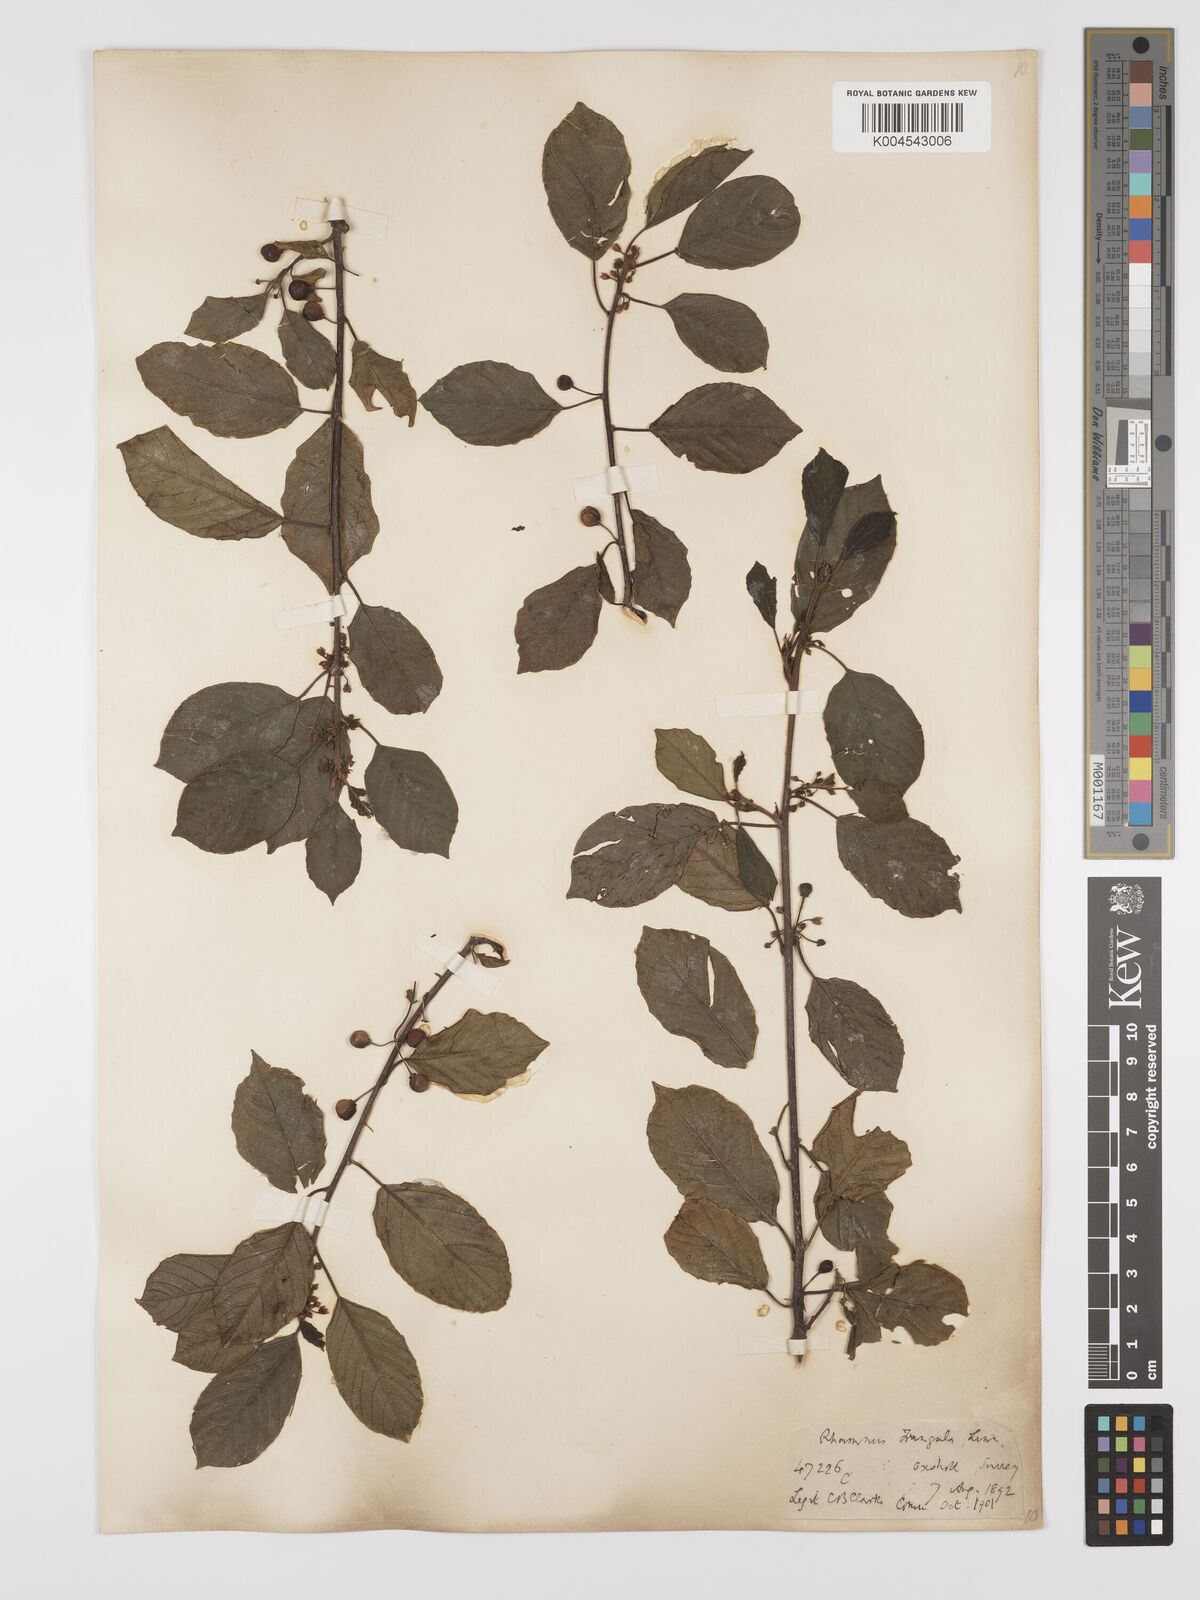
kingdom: Plantae
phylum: Tracheophyta
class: Magnoliopsida
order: Rosales
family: Rhamnaceae
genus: Frangula
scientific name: Frangula alnus
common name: Alder buckthorn
